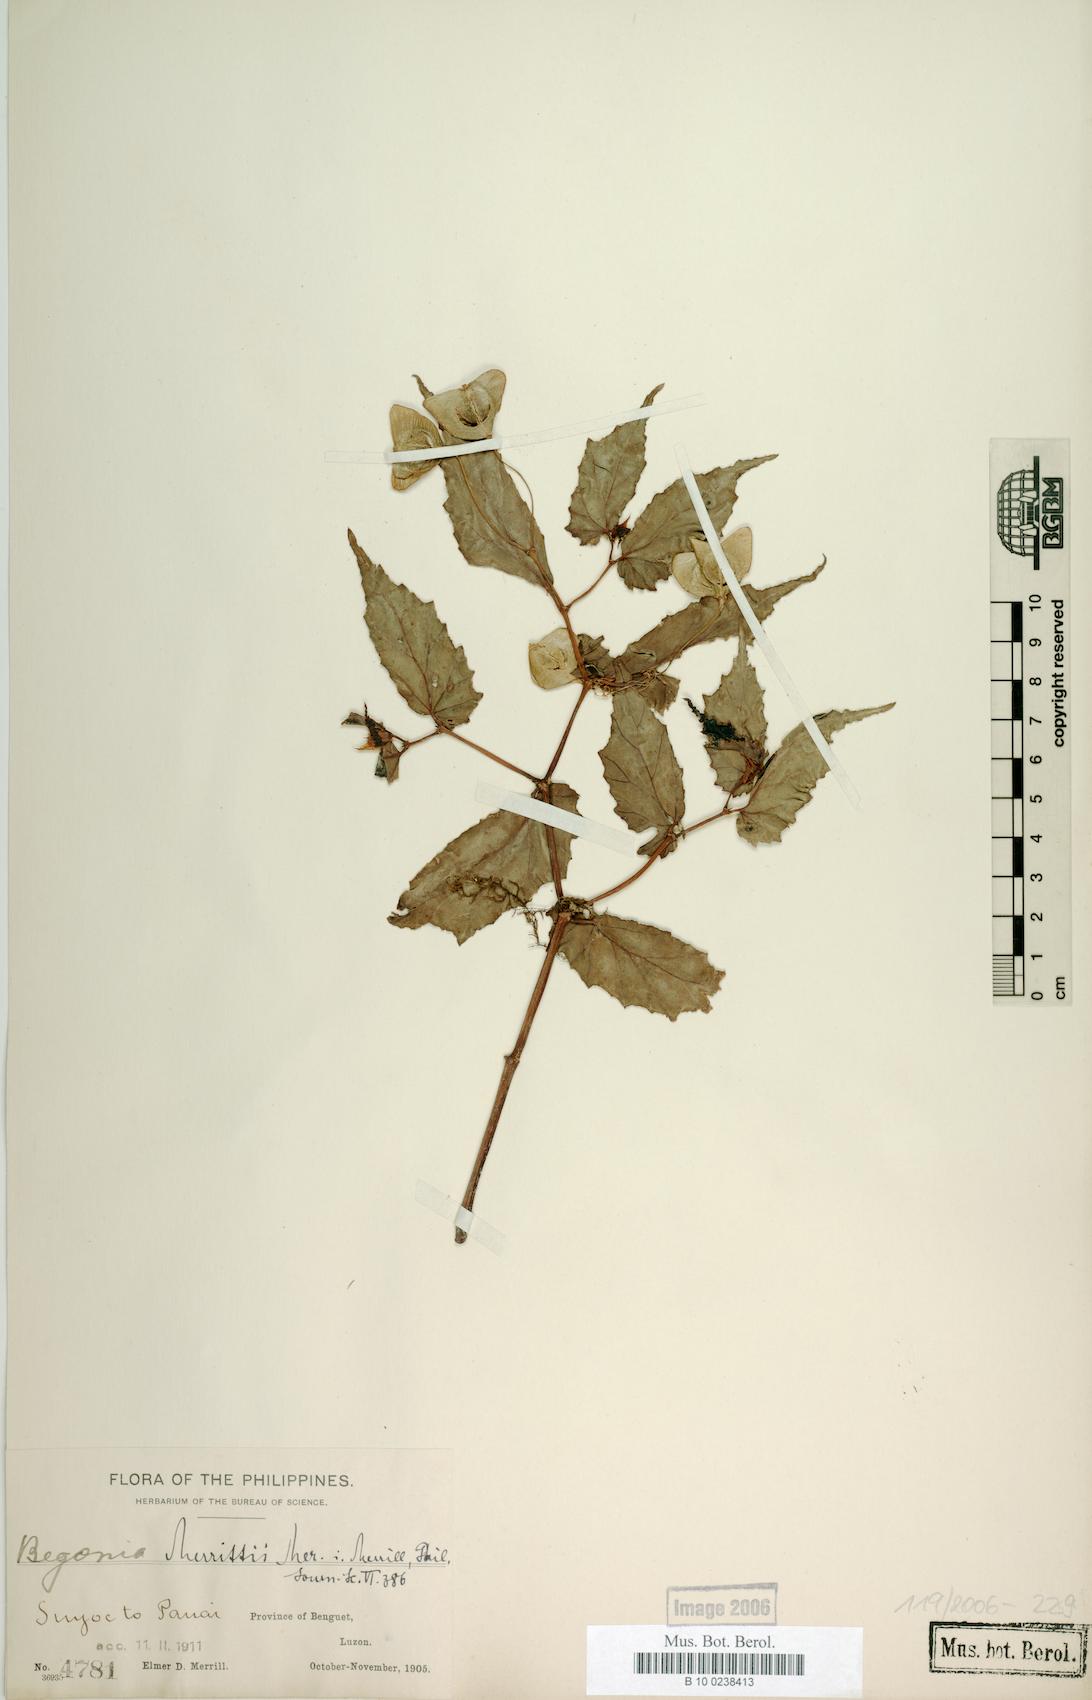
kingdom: Plantae
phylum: Tracheophyta
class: Magnoliopsida
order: Cucurbitales
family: Begoniaceae
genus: Begonia
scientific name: Begonia merrittii
